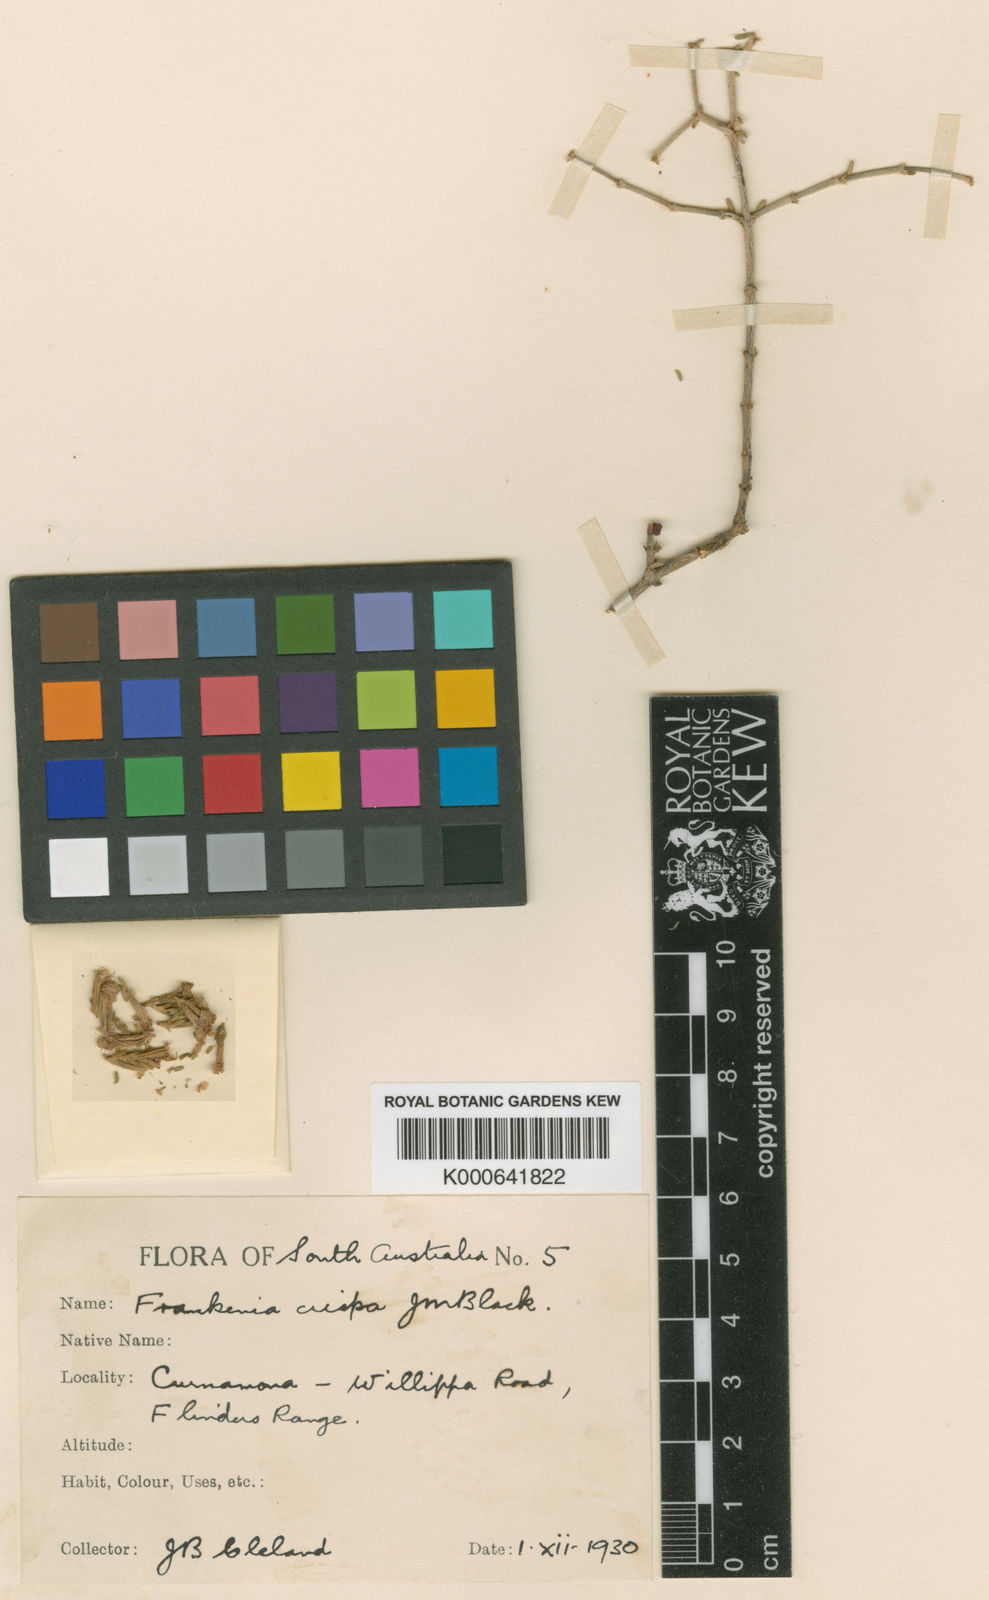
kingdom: Plantae
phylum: Tracheophyta
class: Magnoliopsida
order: Caryophyllales
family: Frankeniaceae
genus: Frankenia
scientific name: Frankenia crispa
